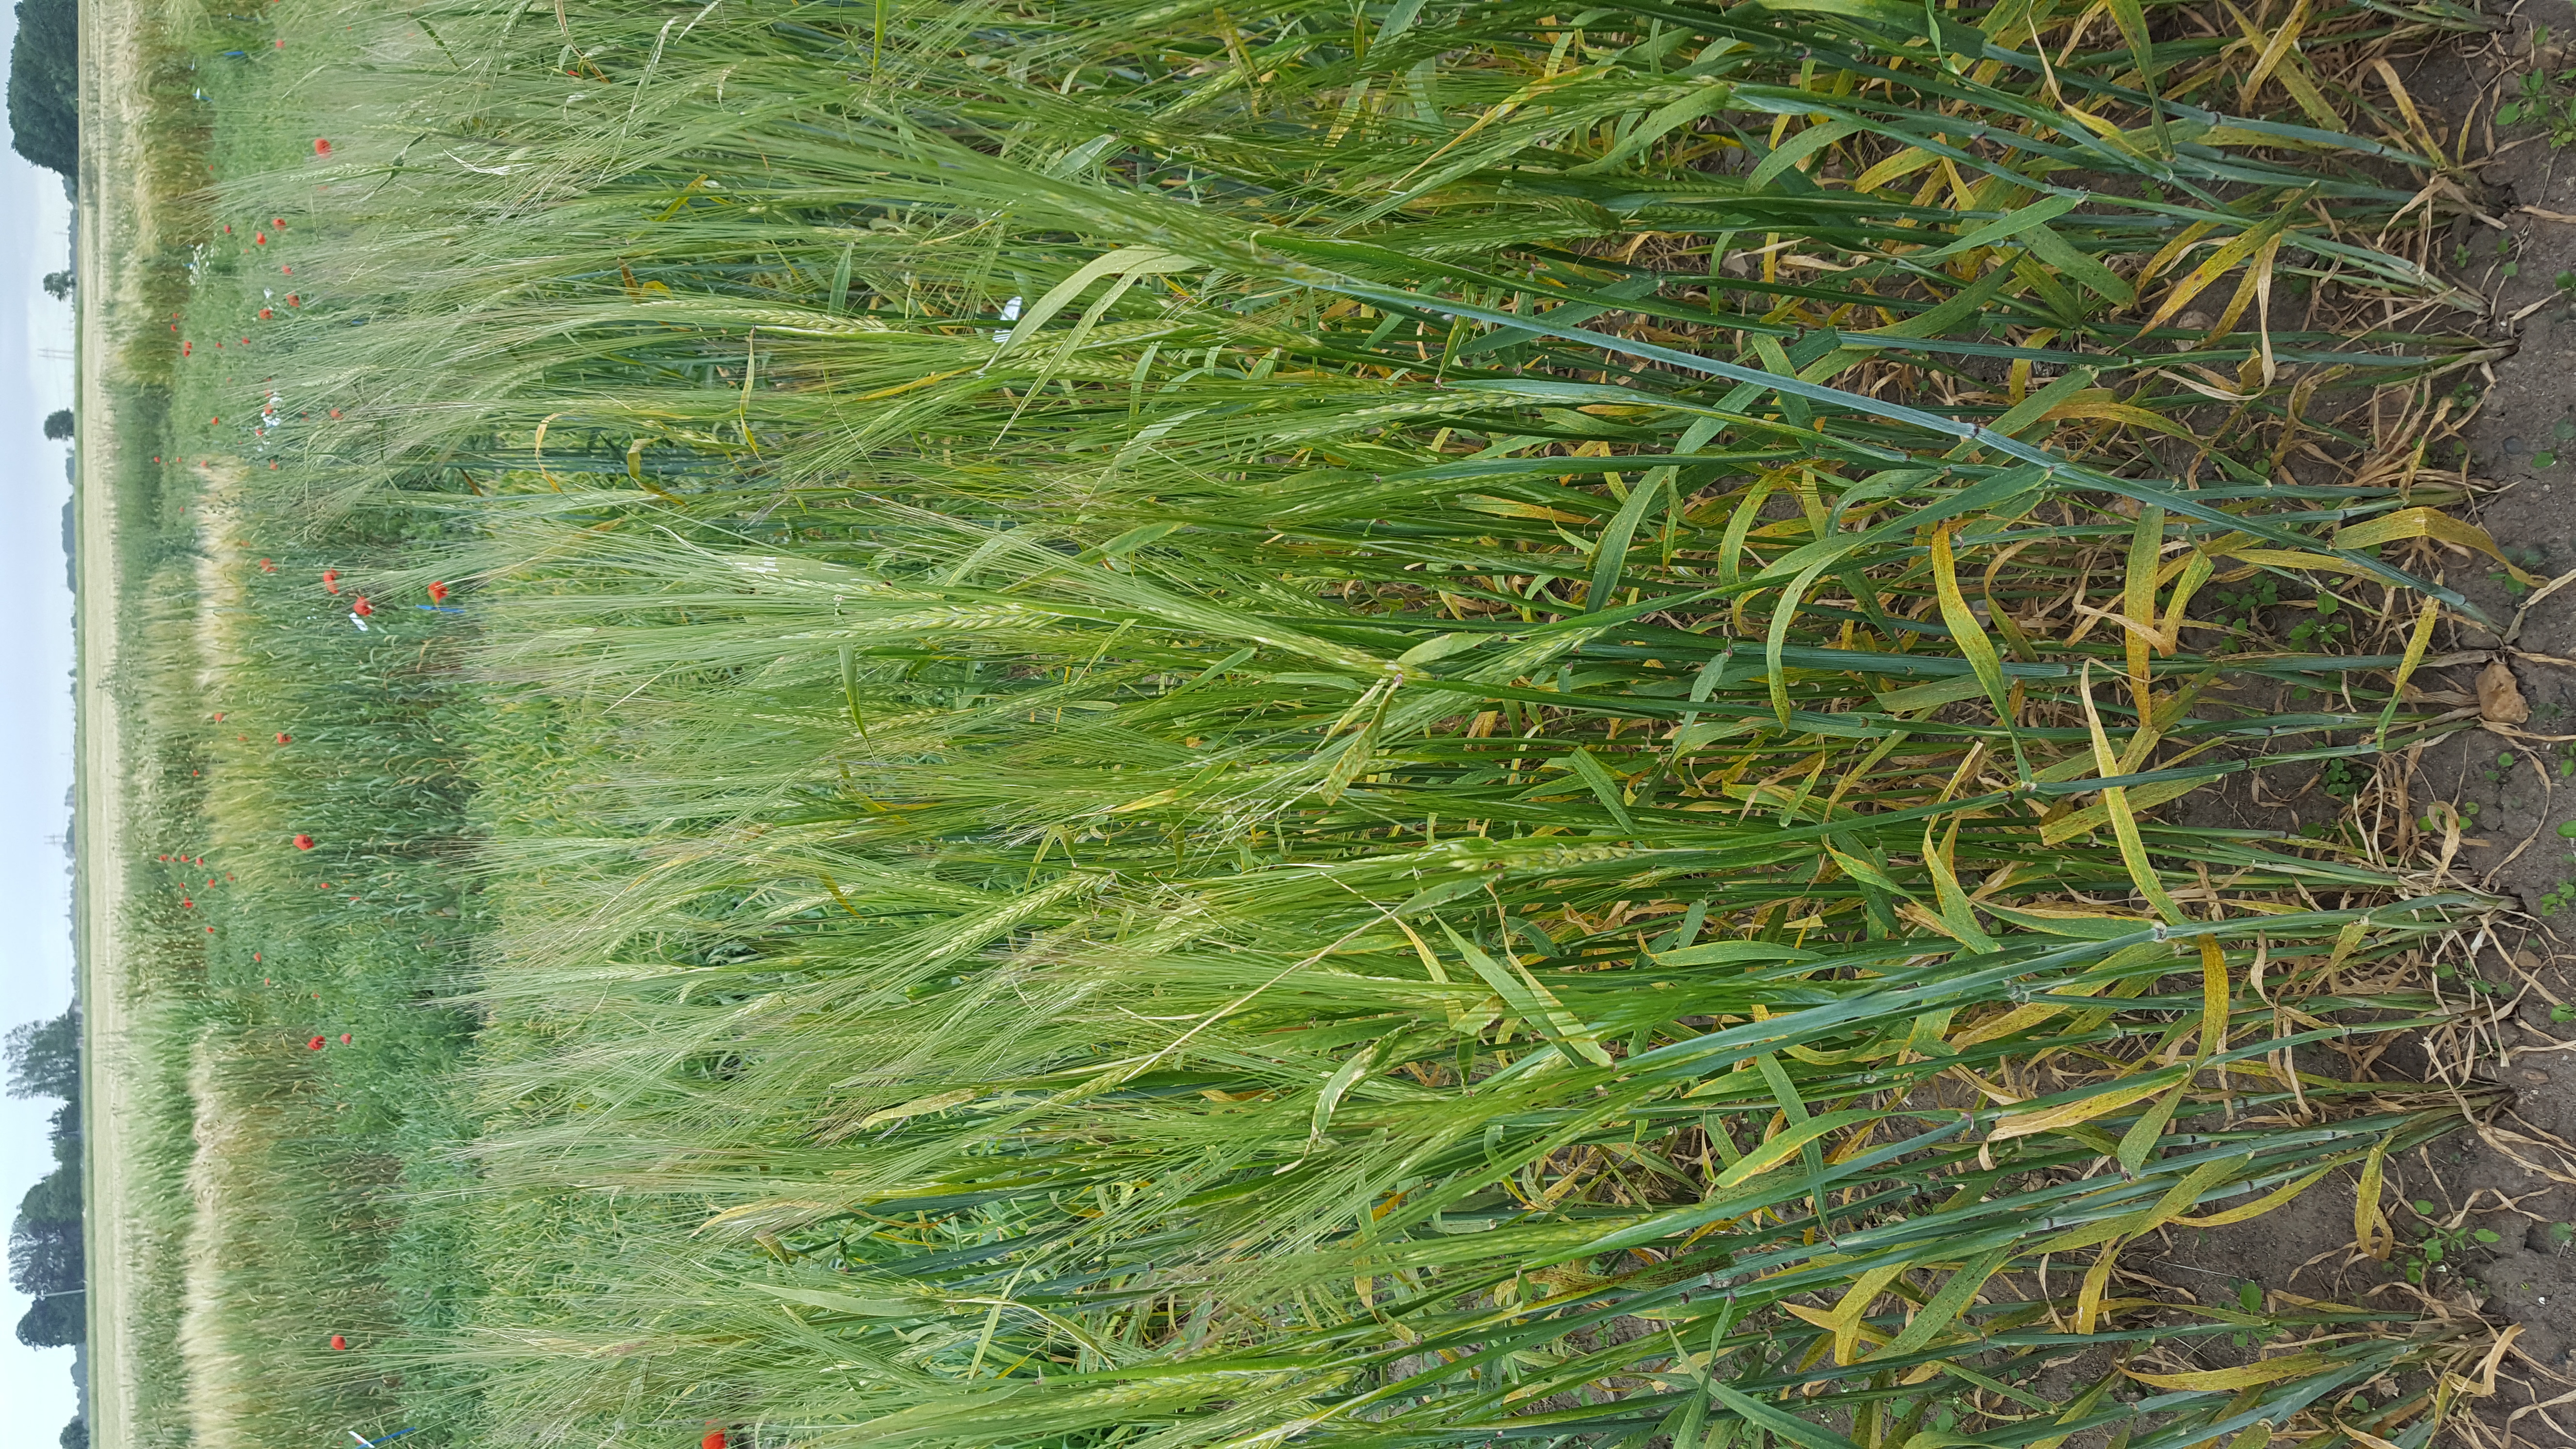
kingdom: Plantae
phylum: Tracheophyta
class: Liliopsida
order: Poales
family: Poaceae
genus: Hordeum
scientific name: Hordeum vulgare
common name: Common barley
